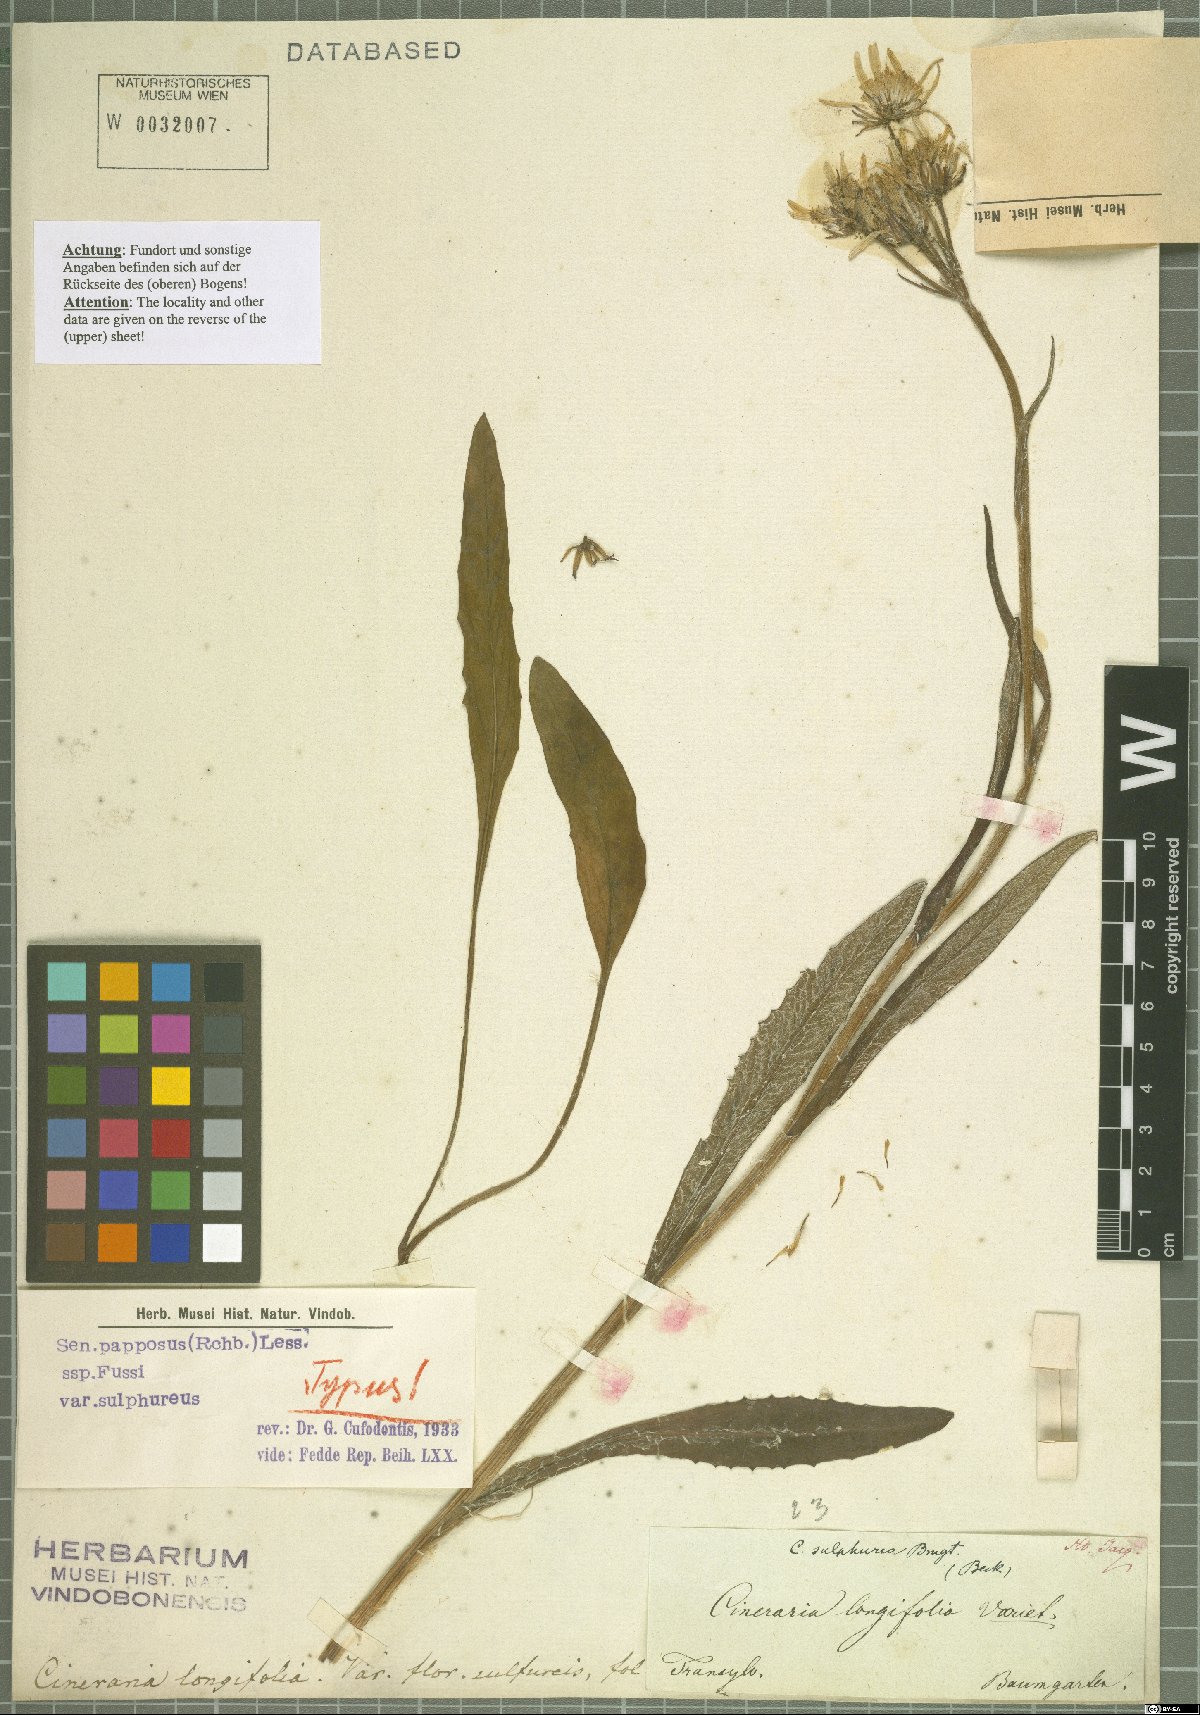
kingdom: Plantae
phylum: Tracheophyta
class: Magnoliopsida
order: Asterales
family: Asteraceae
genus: Tephroseris
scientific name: Tephroseris papposa
